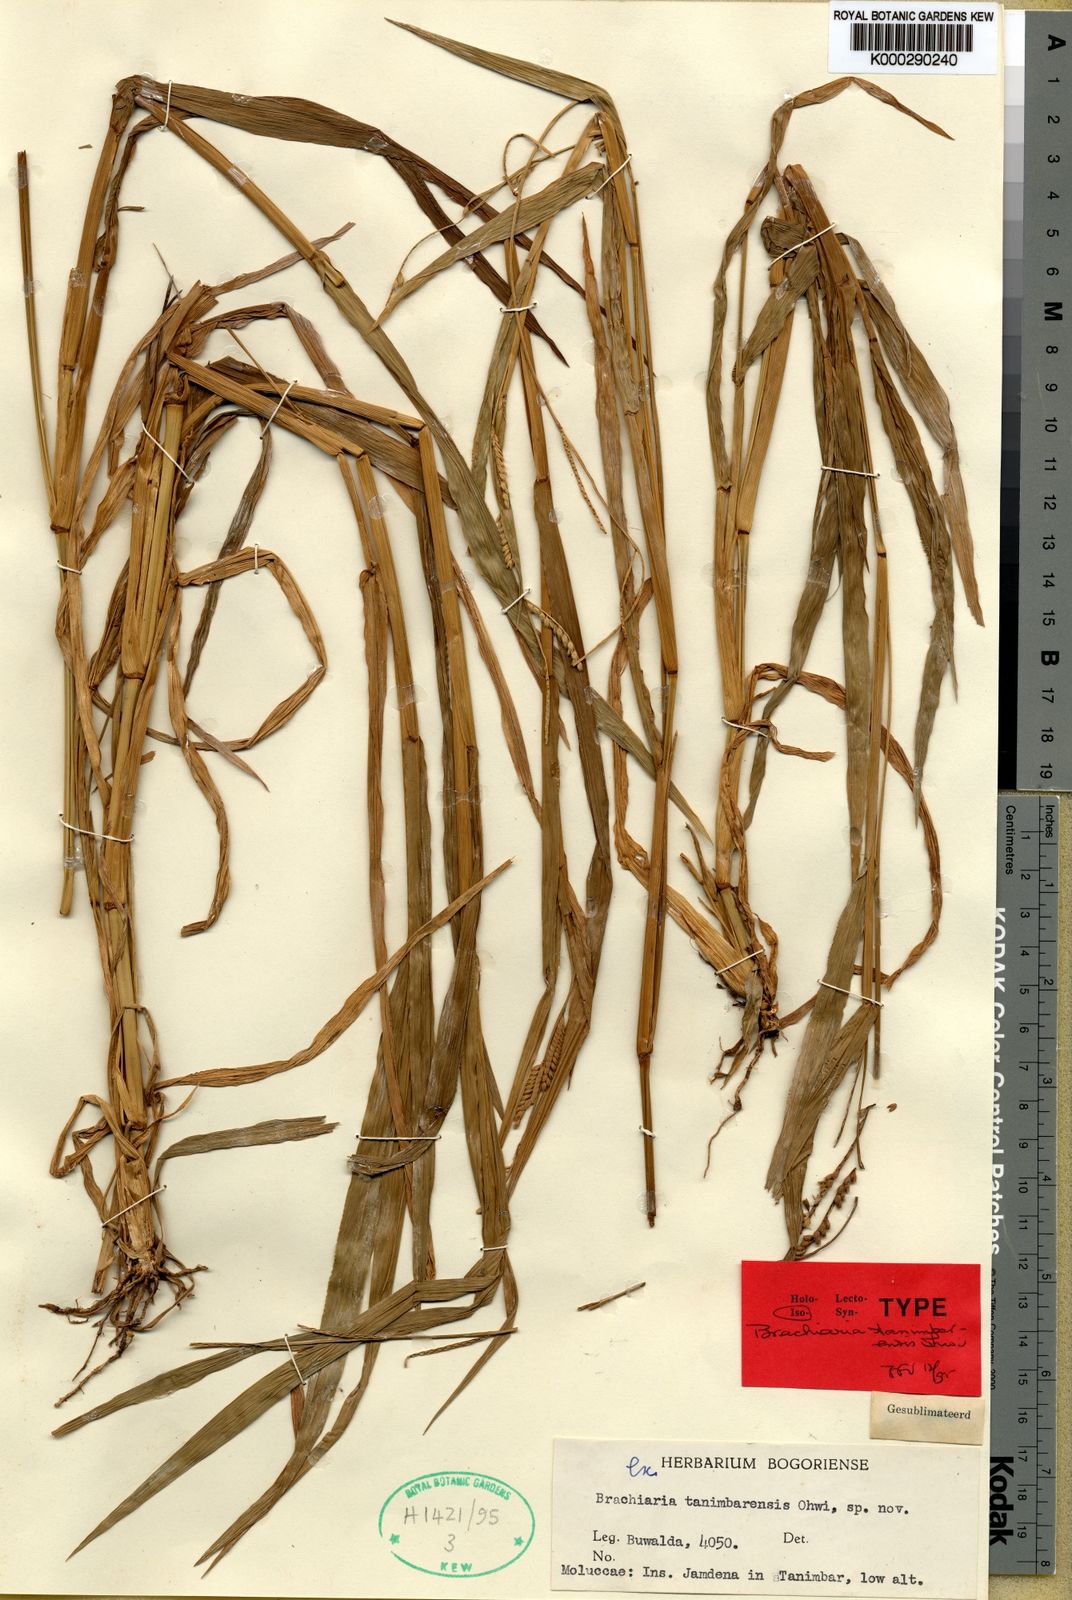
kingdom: Plantae
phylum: Tracheophyta
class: Liliopsida
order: Poales
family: Poaceae
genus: Urochloa
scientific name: Urochloa tanimbarensis
